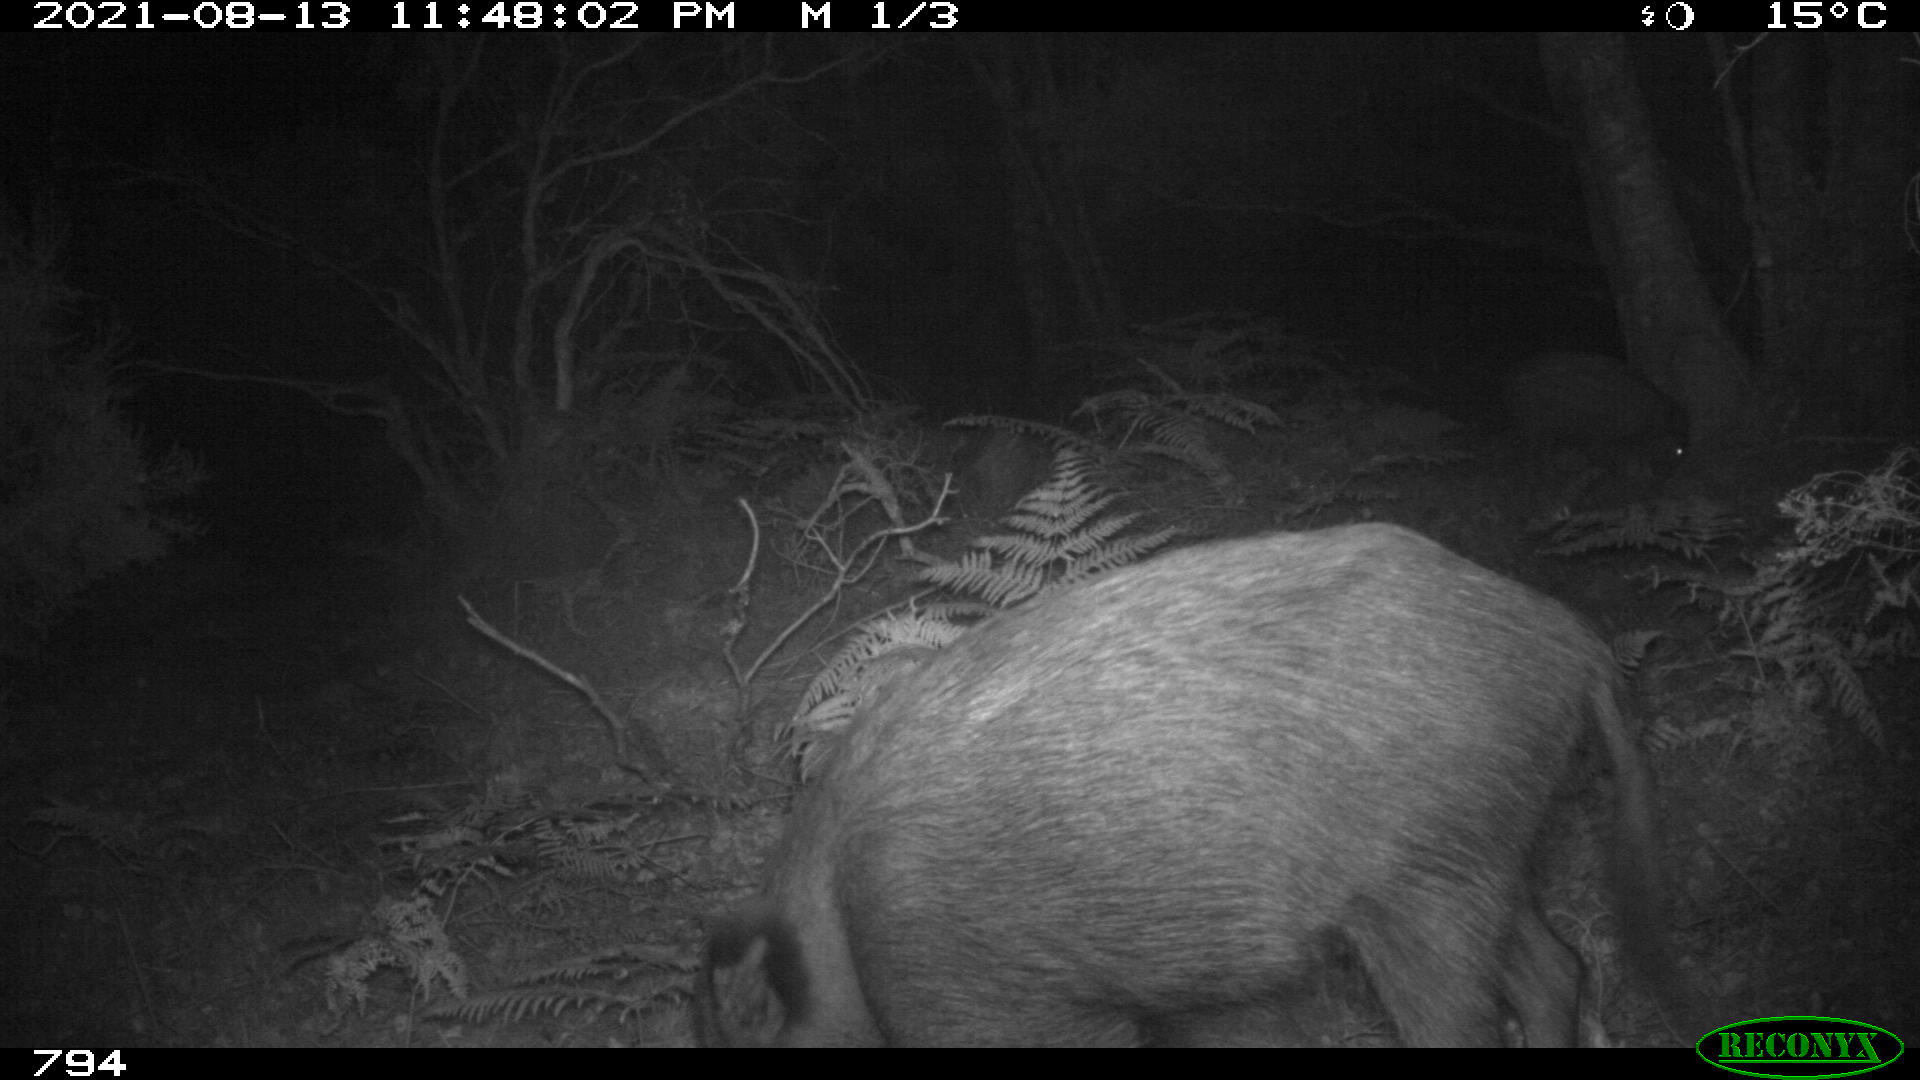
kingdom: Animalia
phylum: Chordata
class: Mammalia
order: Artiodactyla
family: Suidae
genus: Sus
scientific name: Sus scrofa
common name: Wild boar
